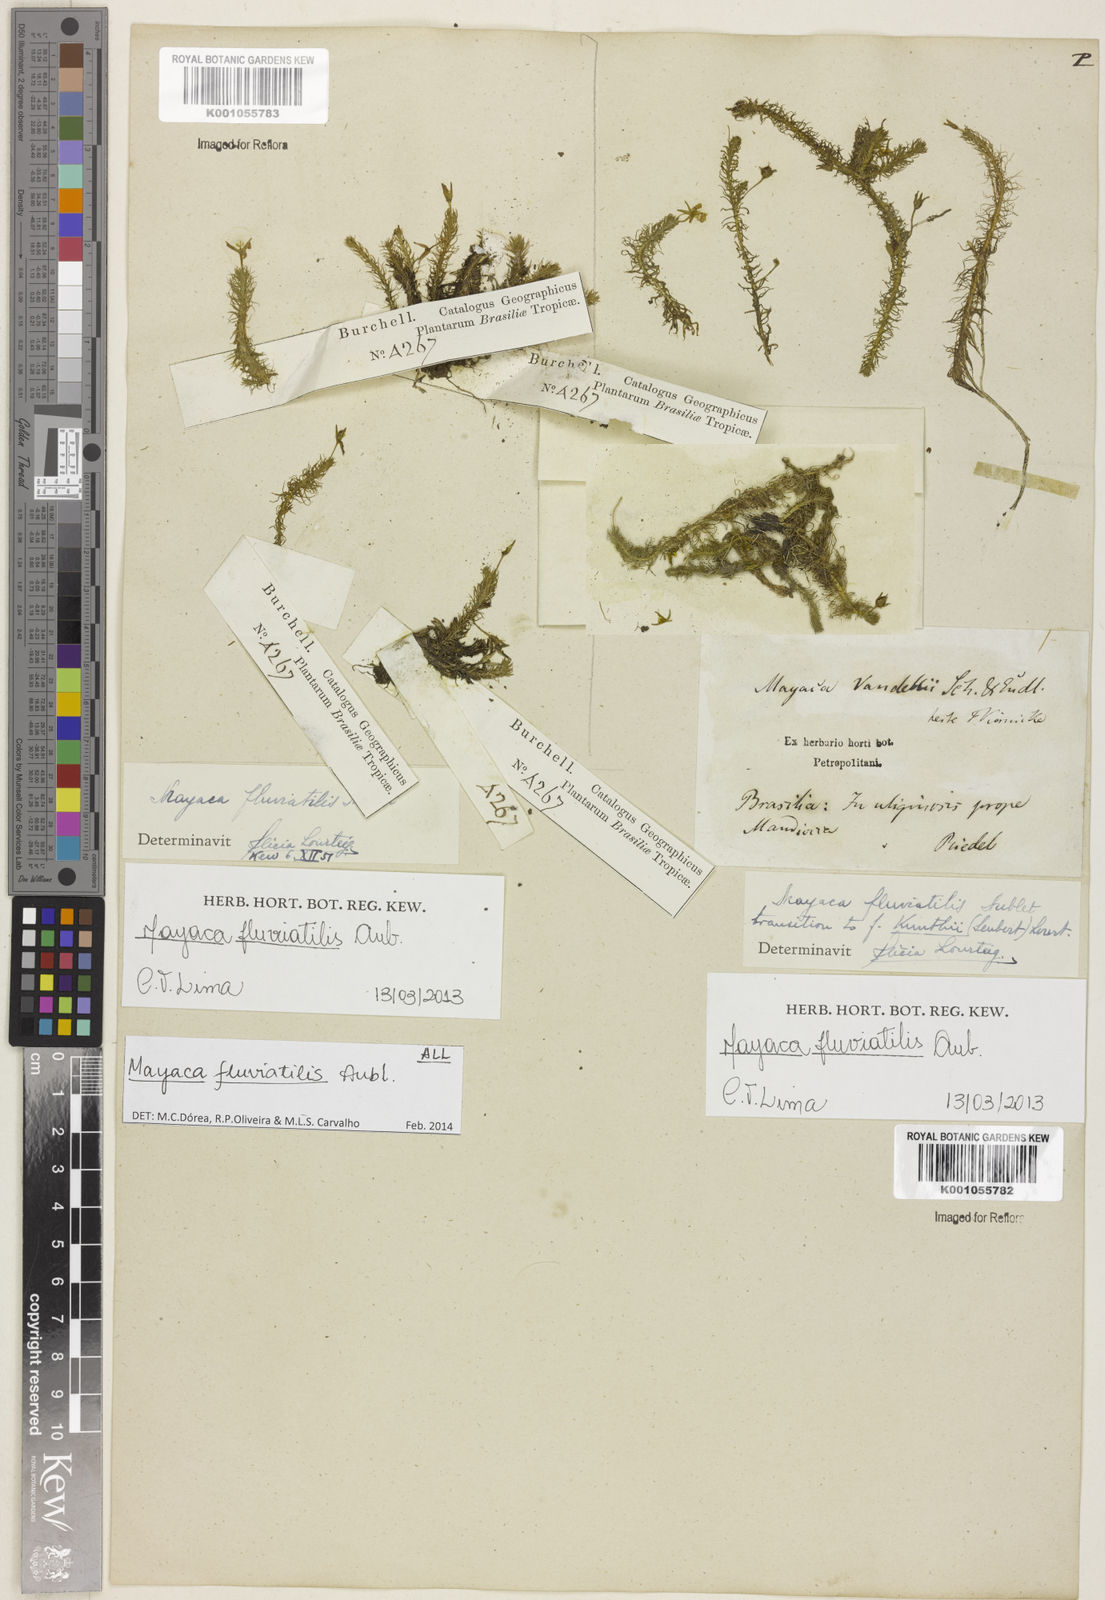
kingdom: Plantae
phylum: Tracheophyta
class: Liliopsida
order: Poales
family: Mayacaceae
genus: Mayaca
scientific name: Mayaca
